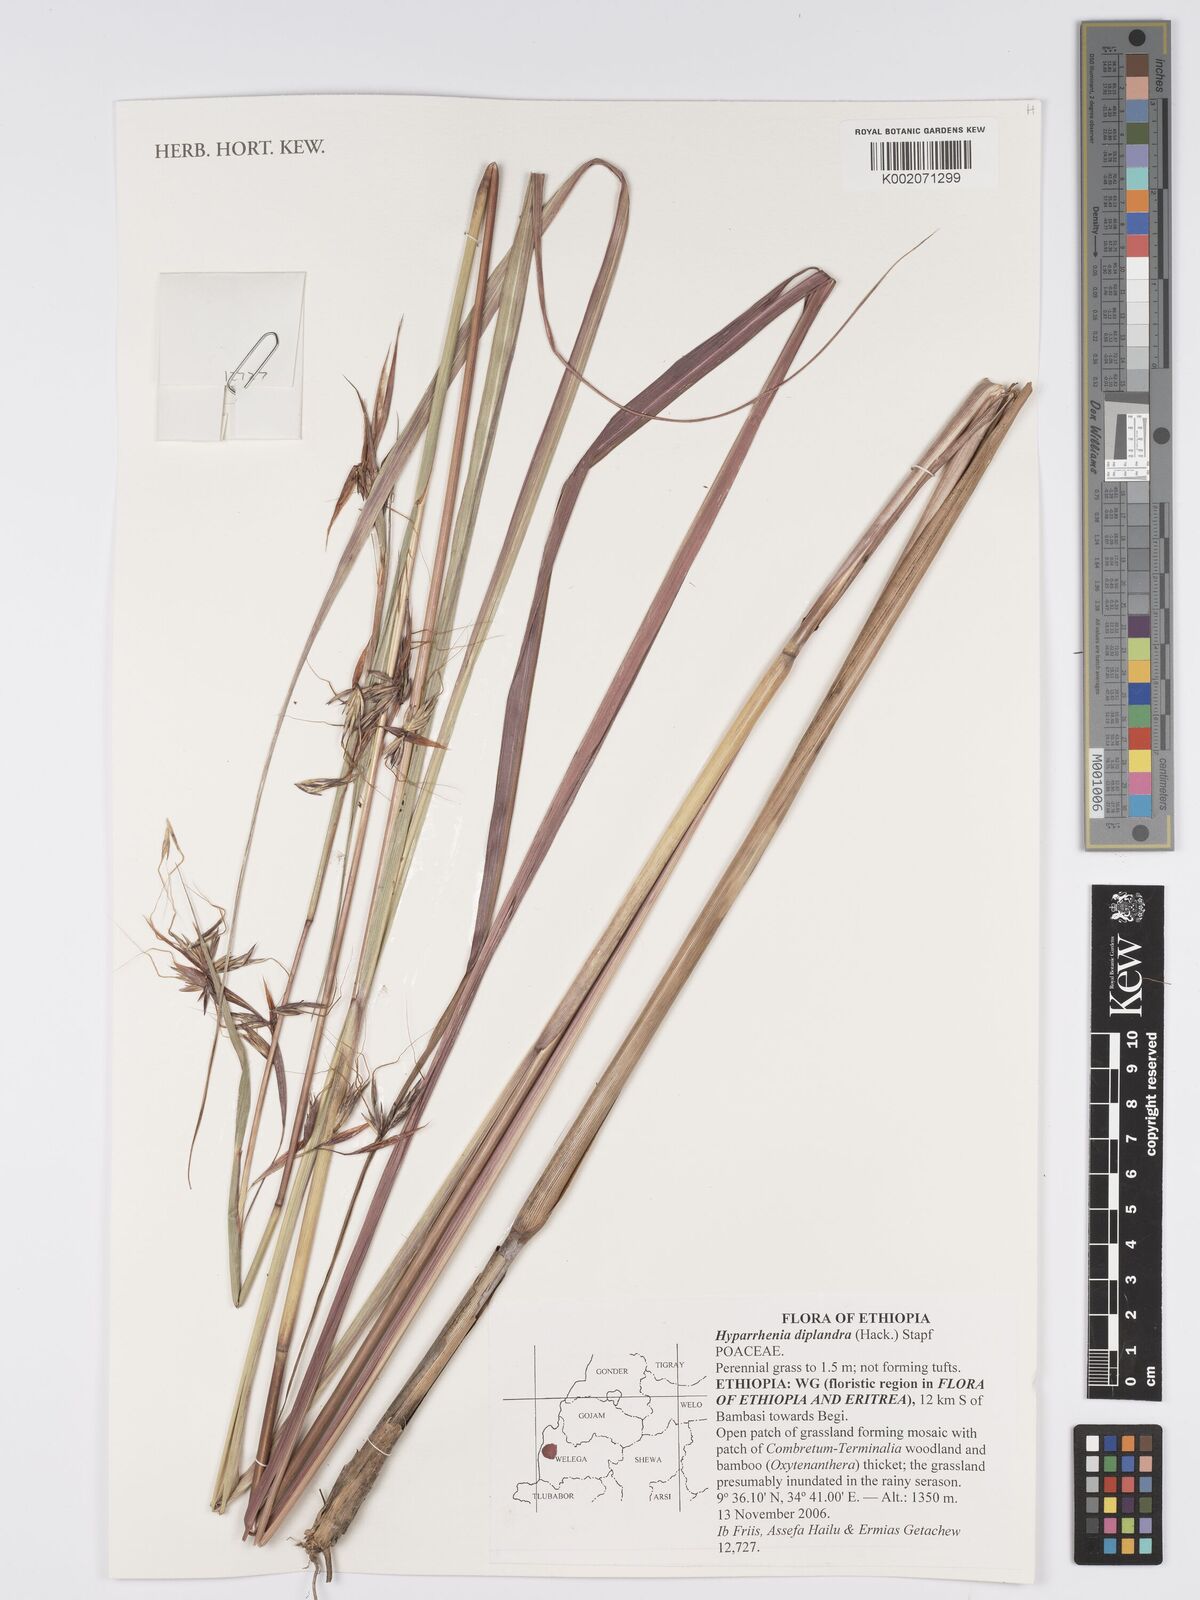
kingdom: Plantae
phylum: Tracheophyta
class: Liliopsida
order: Poales
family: Poaceae
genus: Hyparrhenia
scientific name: Hyparrhenia diplandra
